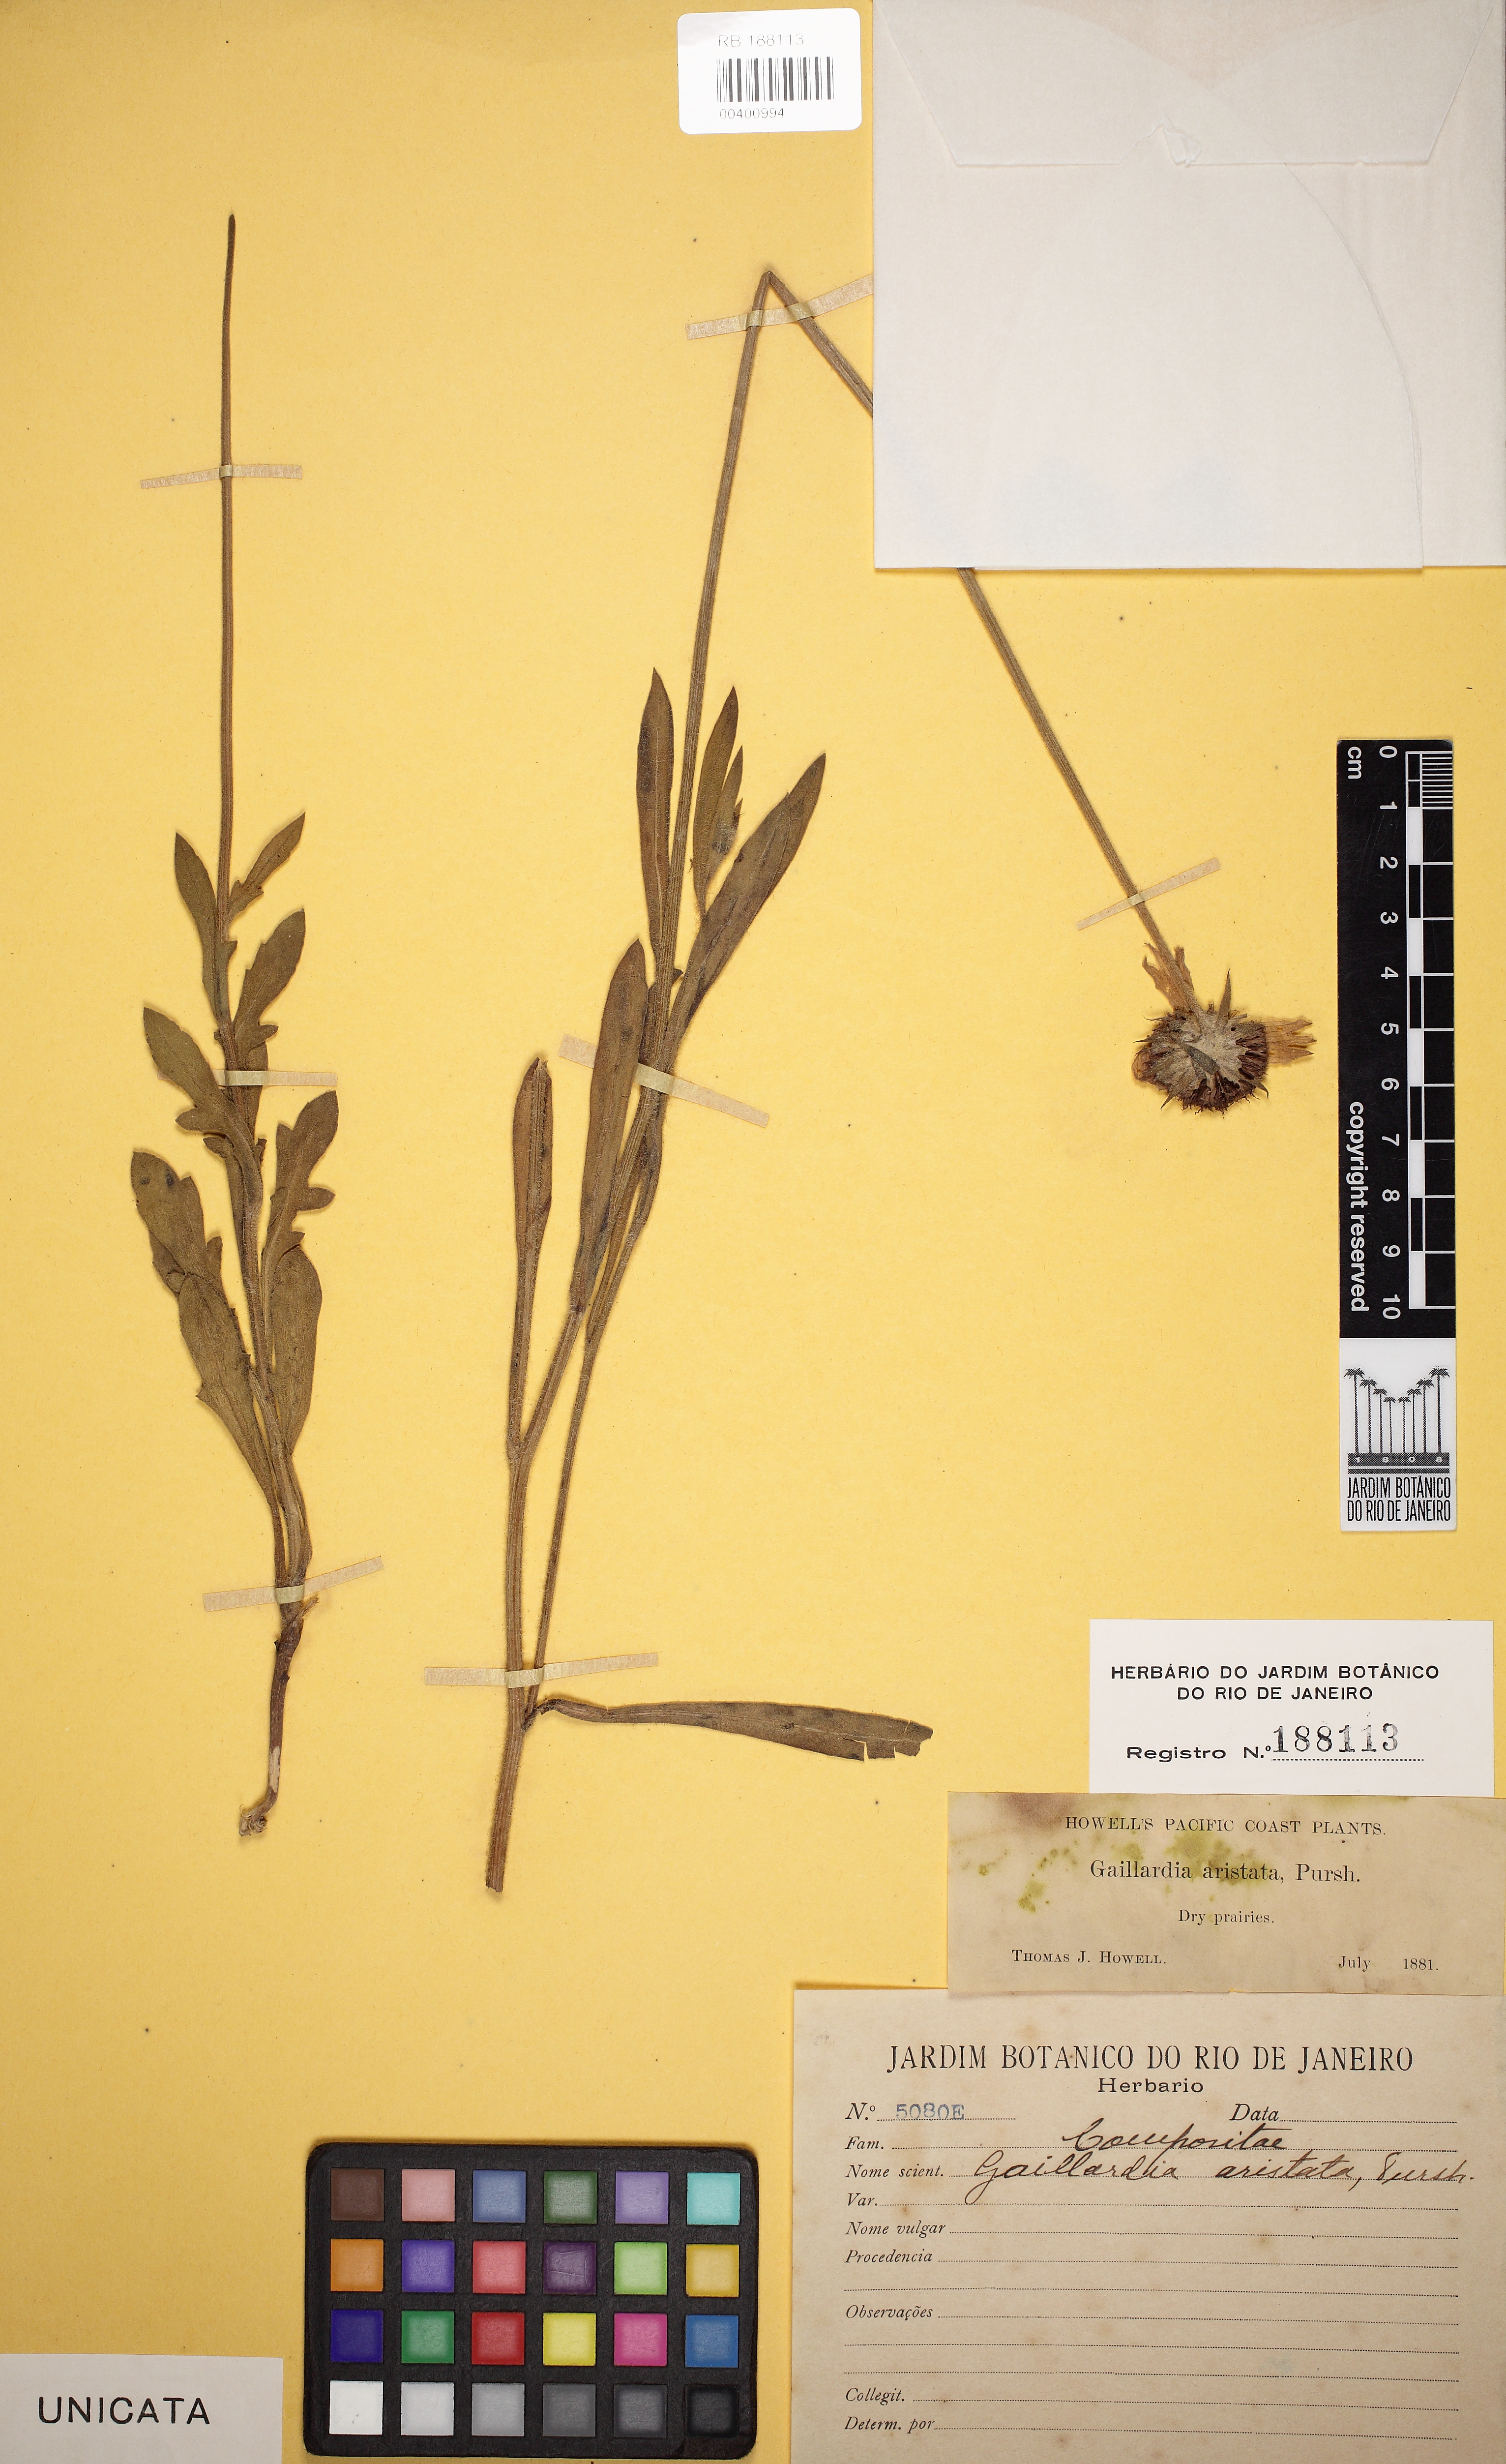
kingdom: Plantae
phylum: Tracheophyta
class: Magnoliopsida
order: Asterales
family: Asteraceae
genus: Gaillardia
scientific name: Gaillardia aristata
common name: Blanket-flower
